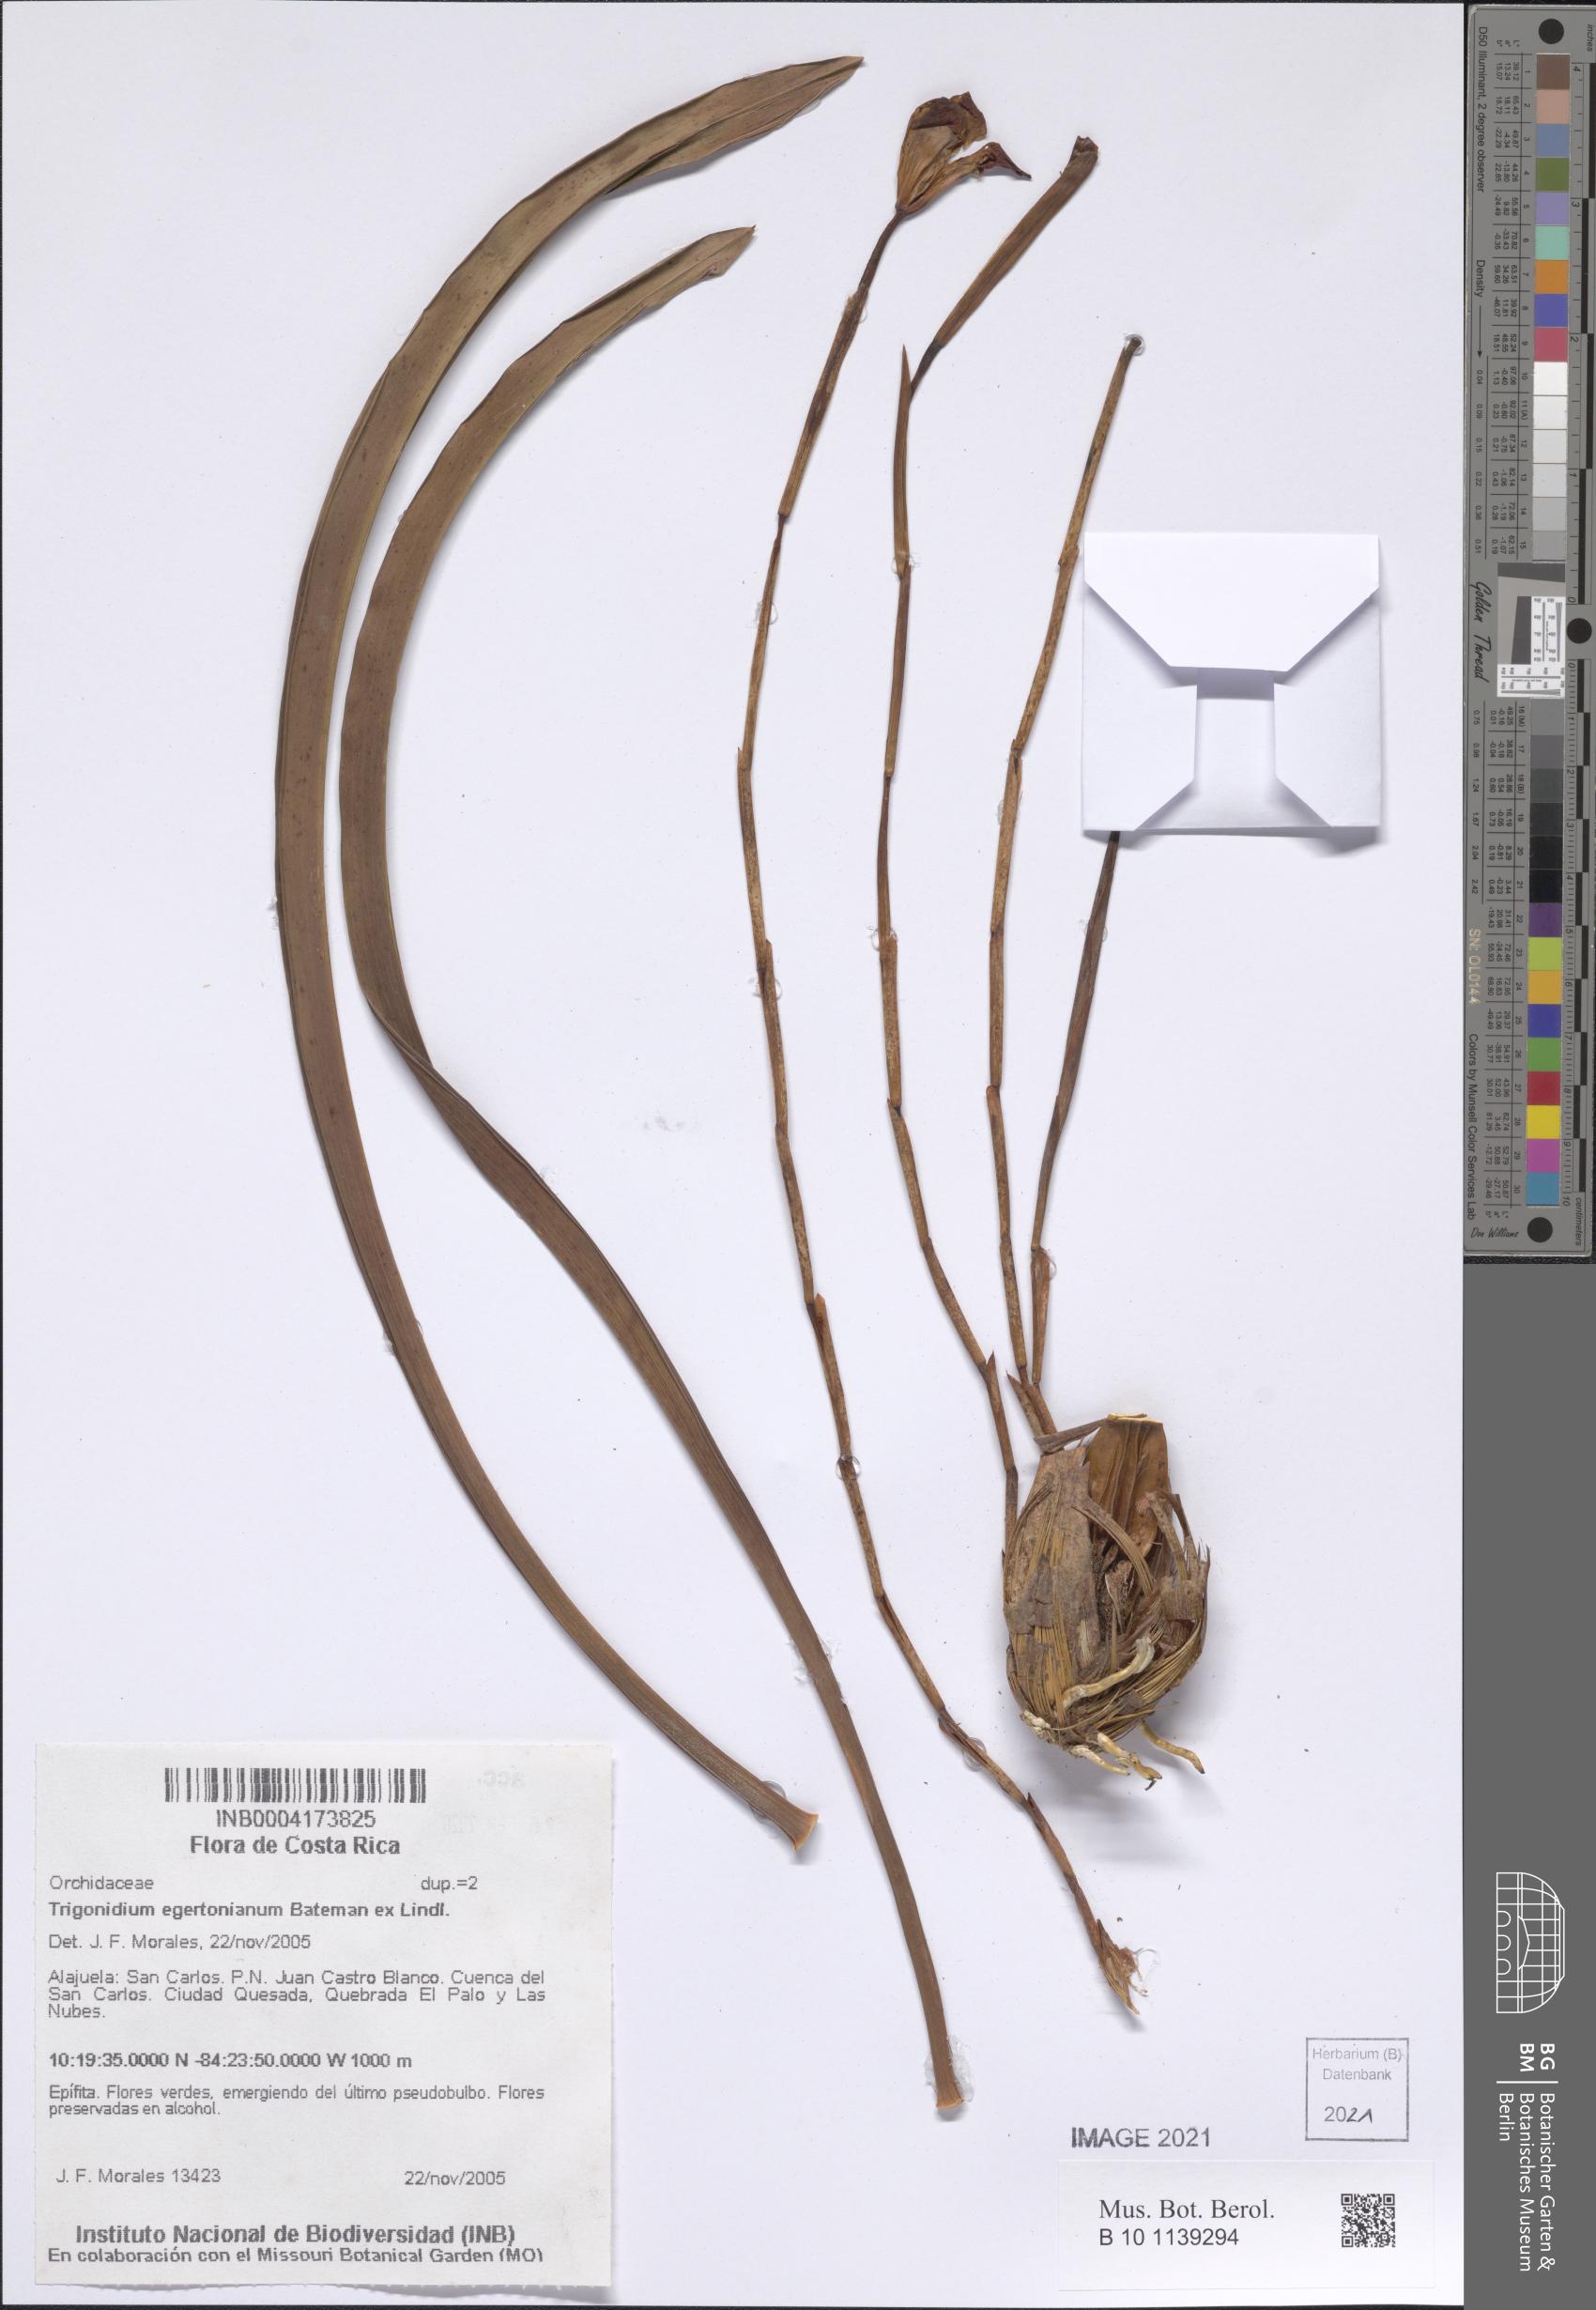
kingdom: Plantae
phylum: Tracheophyta
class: Liliopsida
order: Asparagales
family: Orchidaceae
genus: Maxillaria
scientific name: Maxillaria egertoniana
